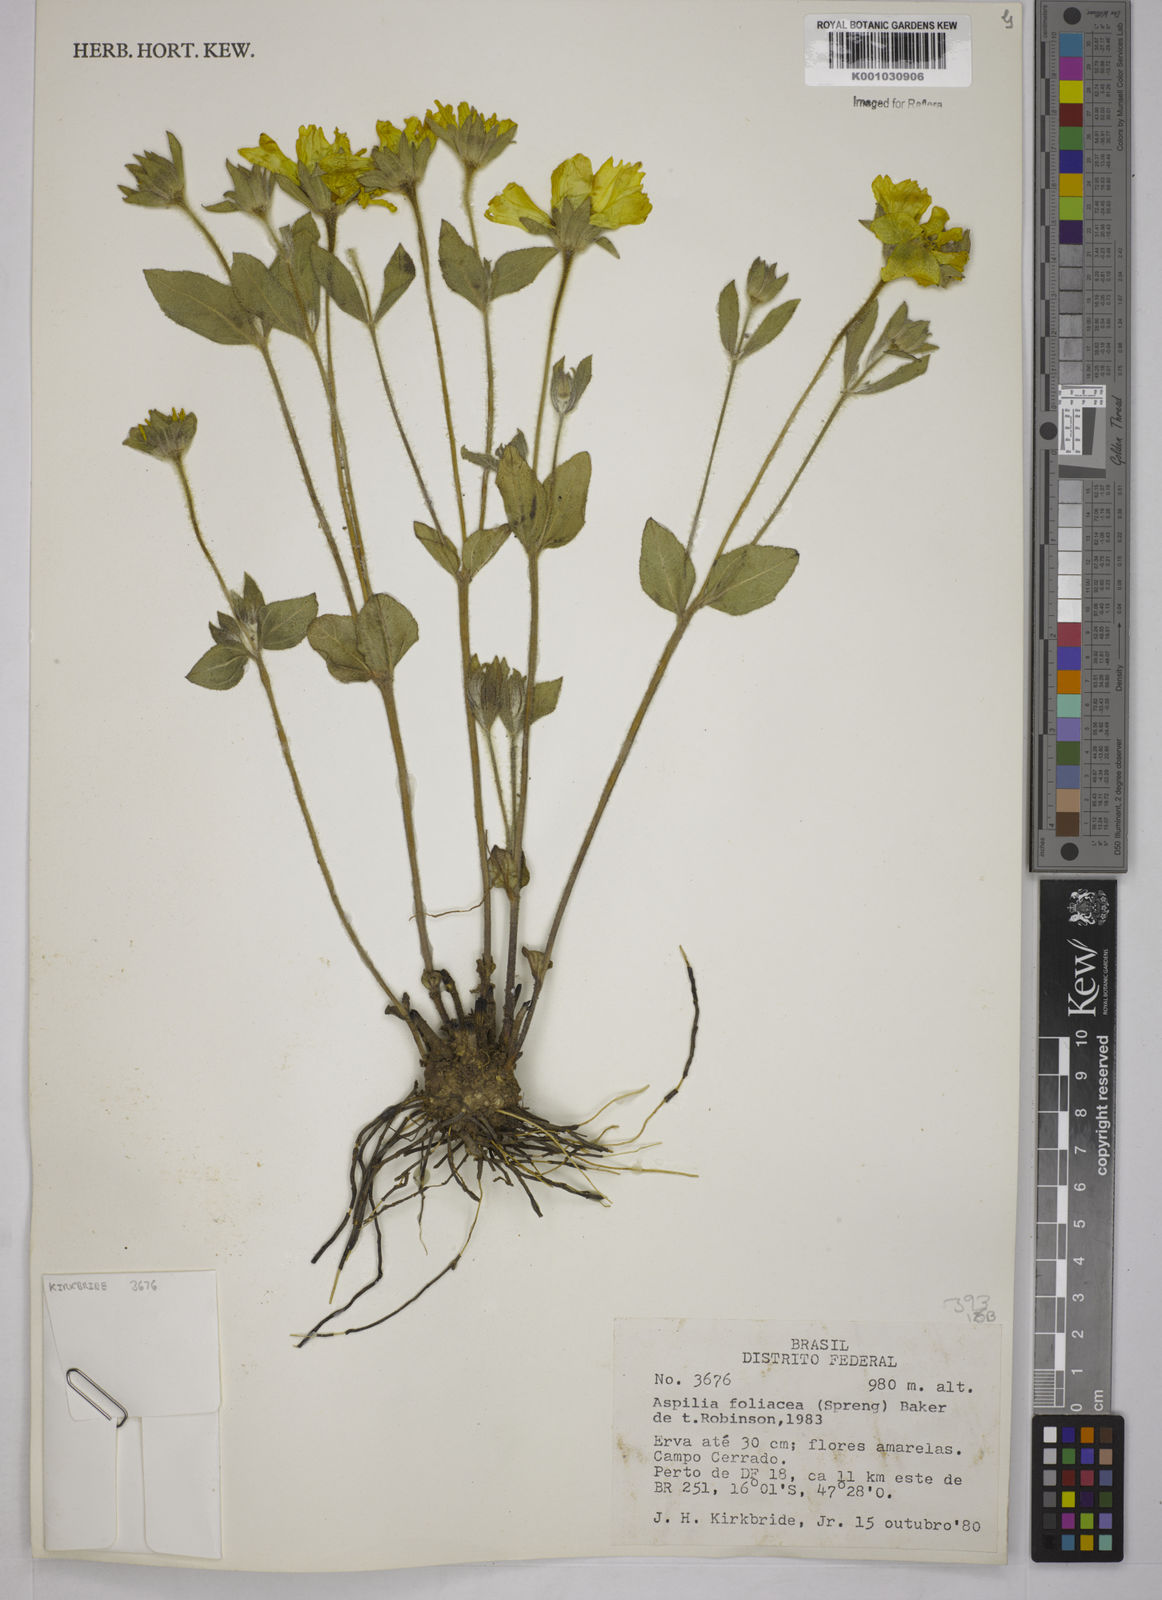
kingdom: Plantae
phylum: Tracheophyta
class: Magnoliopsida
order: Asterales
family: Asteraceae
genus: Wedelia
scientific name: Wedelia foliacea
